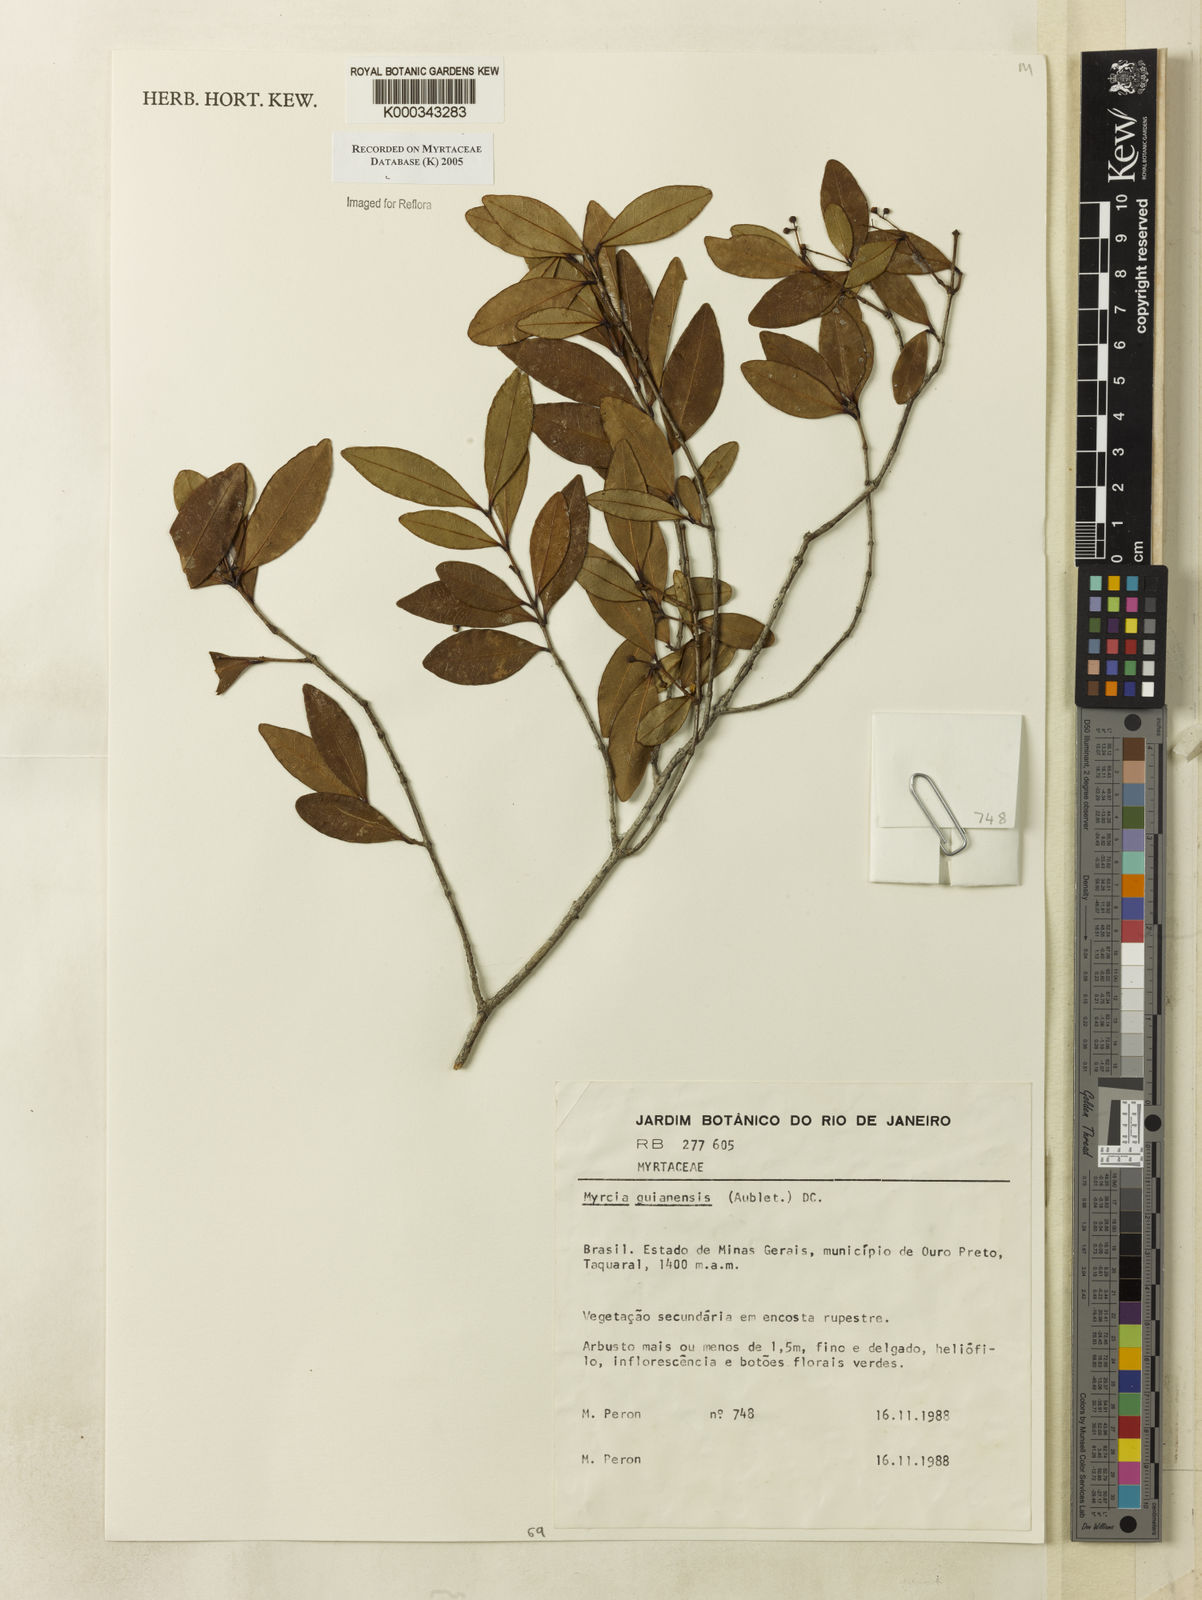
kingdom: Plantae
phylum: Tracheophyta
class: Magnoliopsida
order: Myrtales
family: Myrtaceae
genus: Myrcia
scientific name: Myrcia guianensis
